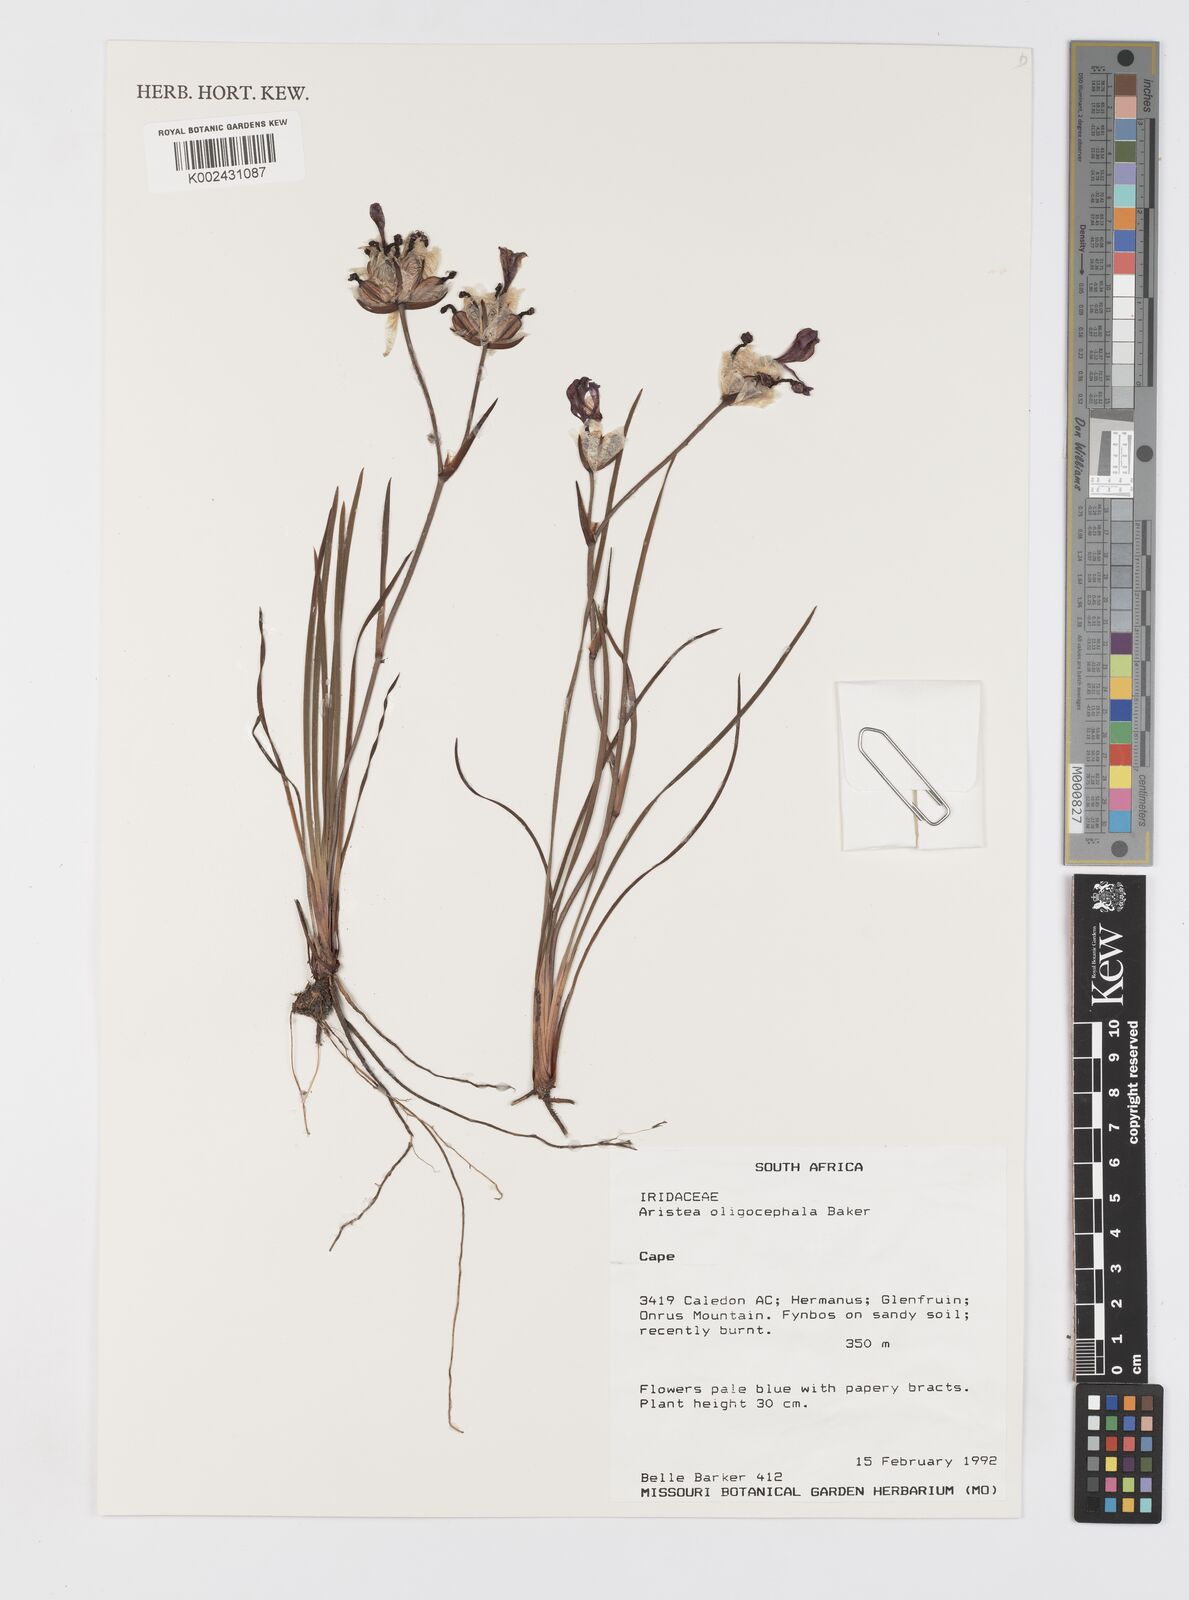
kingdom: Plantae
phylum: Tracheophyta
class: Liliopsida
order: Asparagales
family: Iridaceae
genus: Aristea
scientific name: Aristea oligocephala
